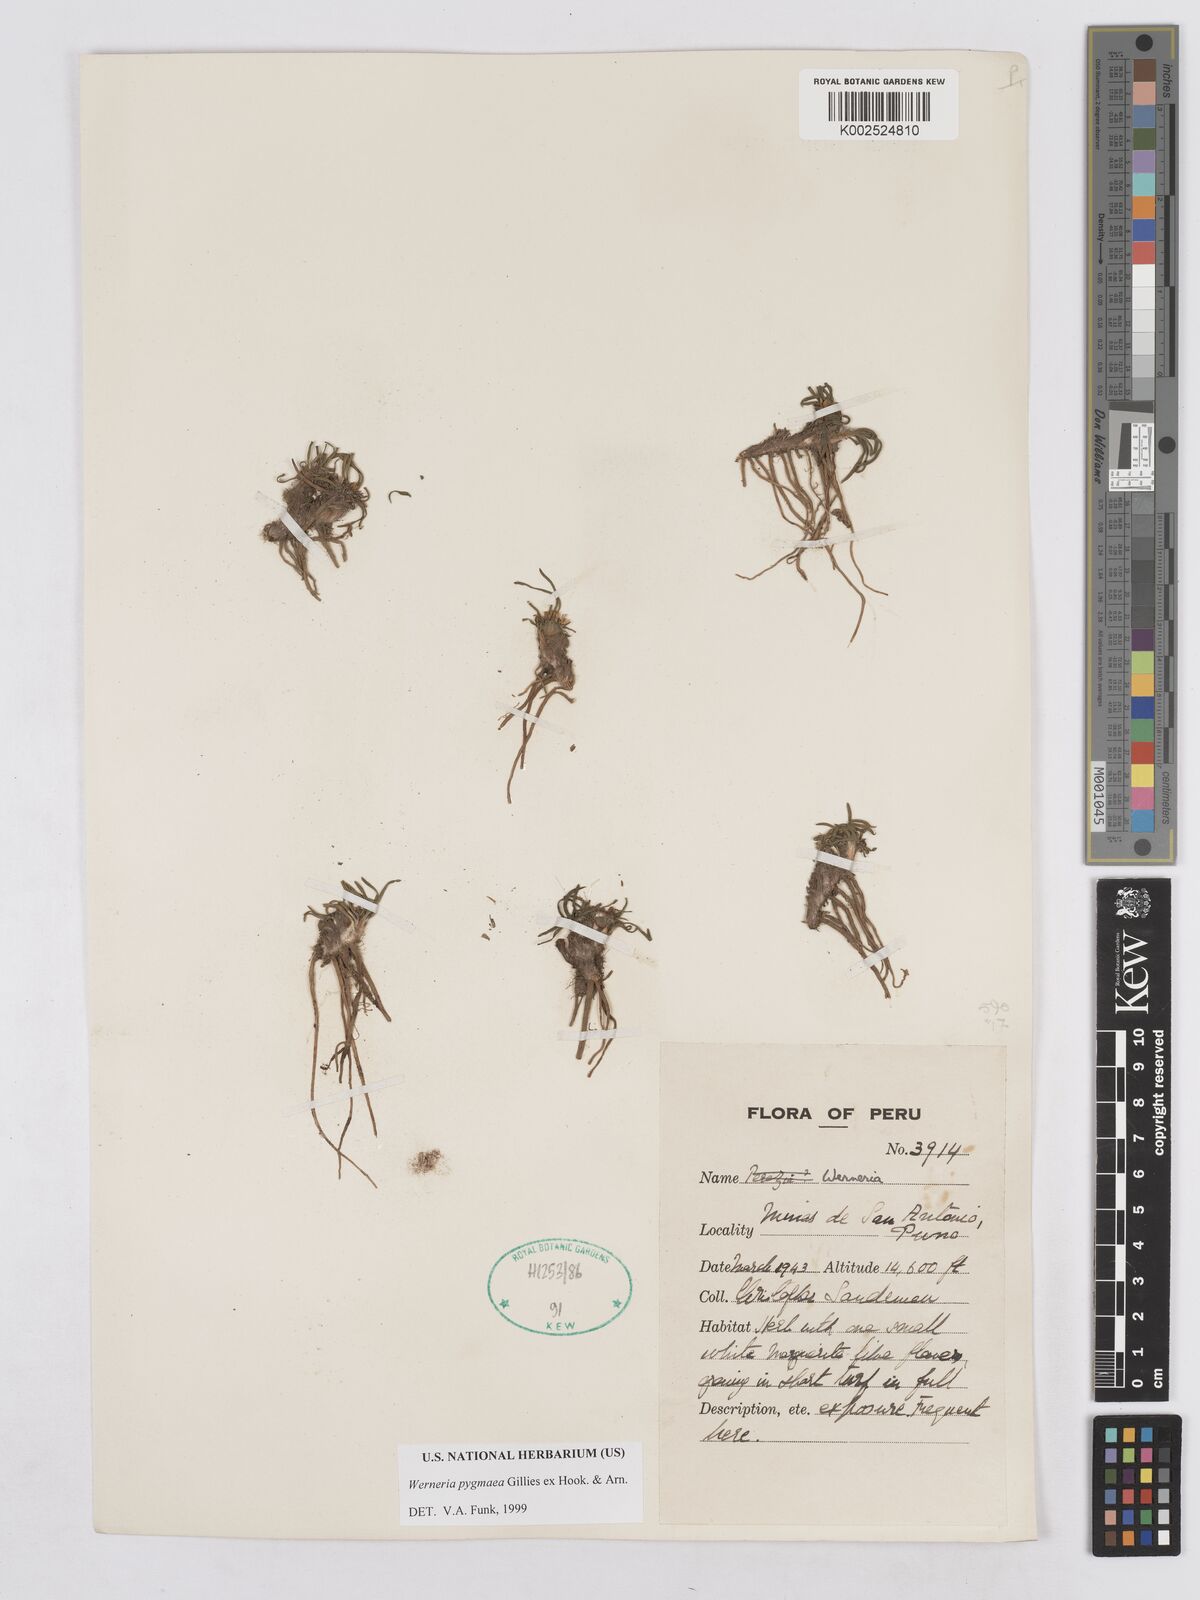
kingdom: Plantae
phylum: Tracheophyta
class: Magnoliopsida
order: Asterales
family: Asteraceae
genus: Rockhausenia
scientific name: Rockhausenia pygmaea
